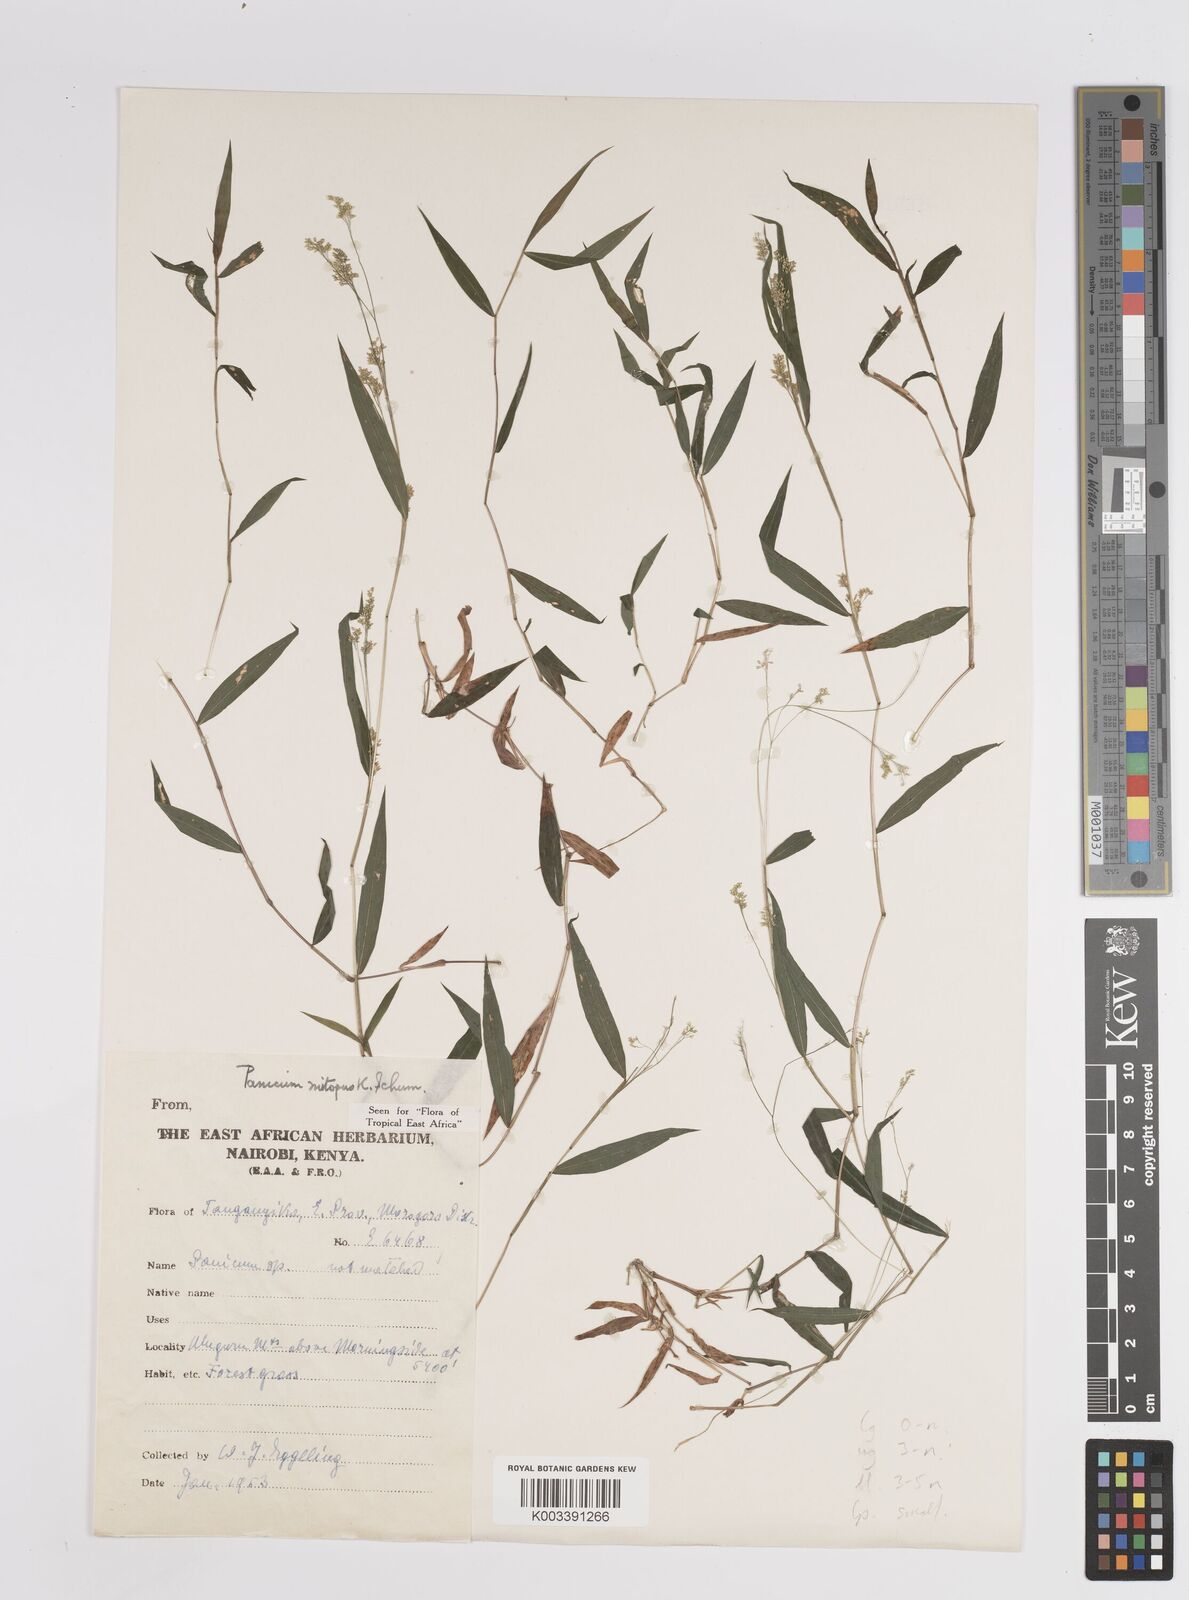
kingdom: Plantae
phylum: Tracheophyta
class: Liliopsida
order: Poales
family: Poaceae
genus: Panicum
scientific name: Panicum mitopus
